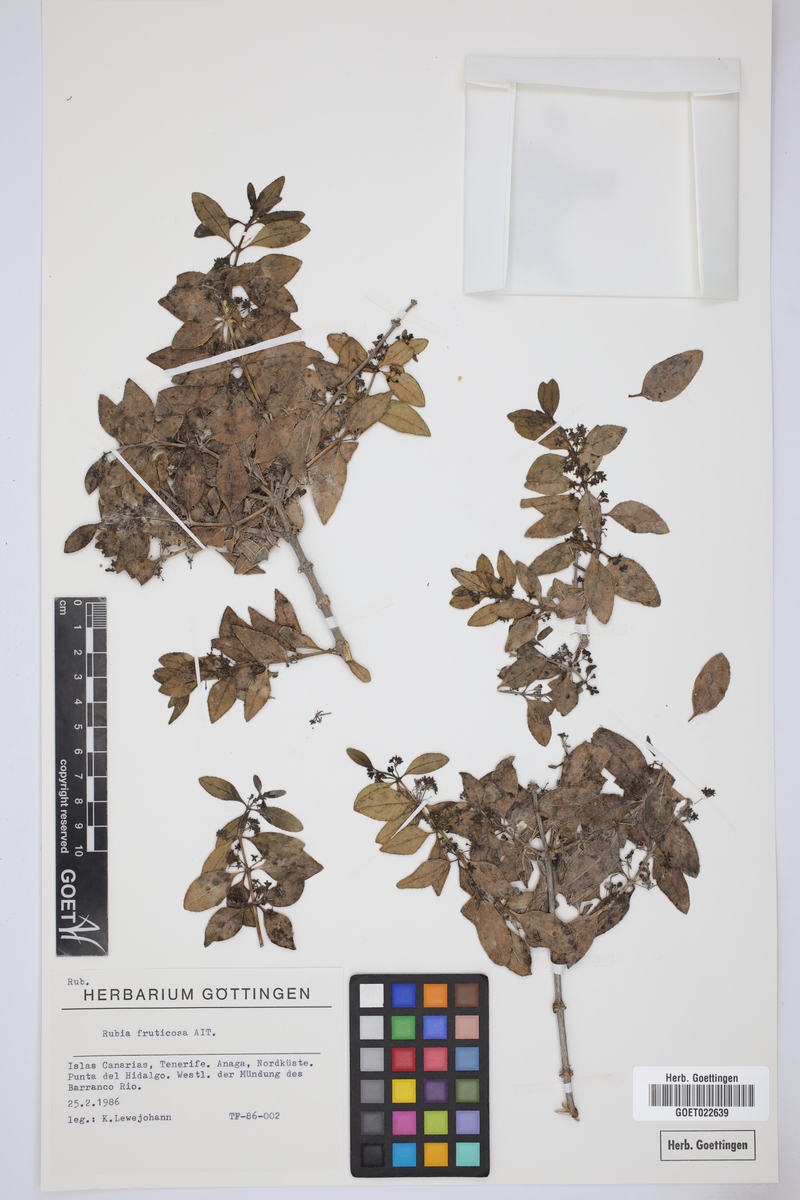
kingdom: Plantae
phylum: Tracheophyta
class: Magnoliopsida
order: Gentianales
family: Rubiaceae
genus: Rubia
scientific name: Rubia fruticosa
